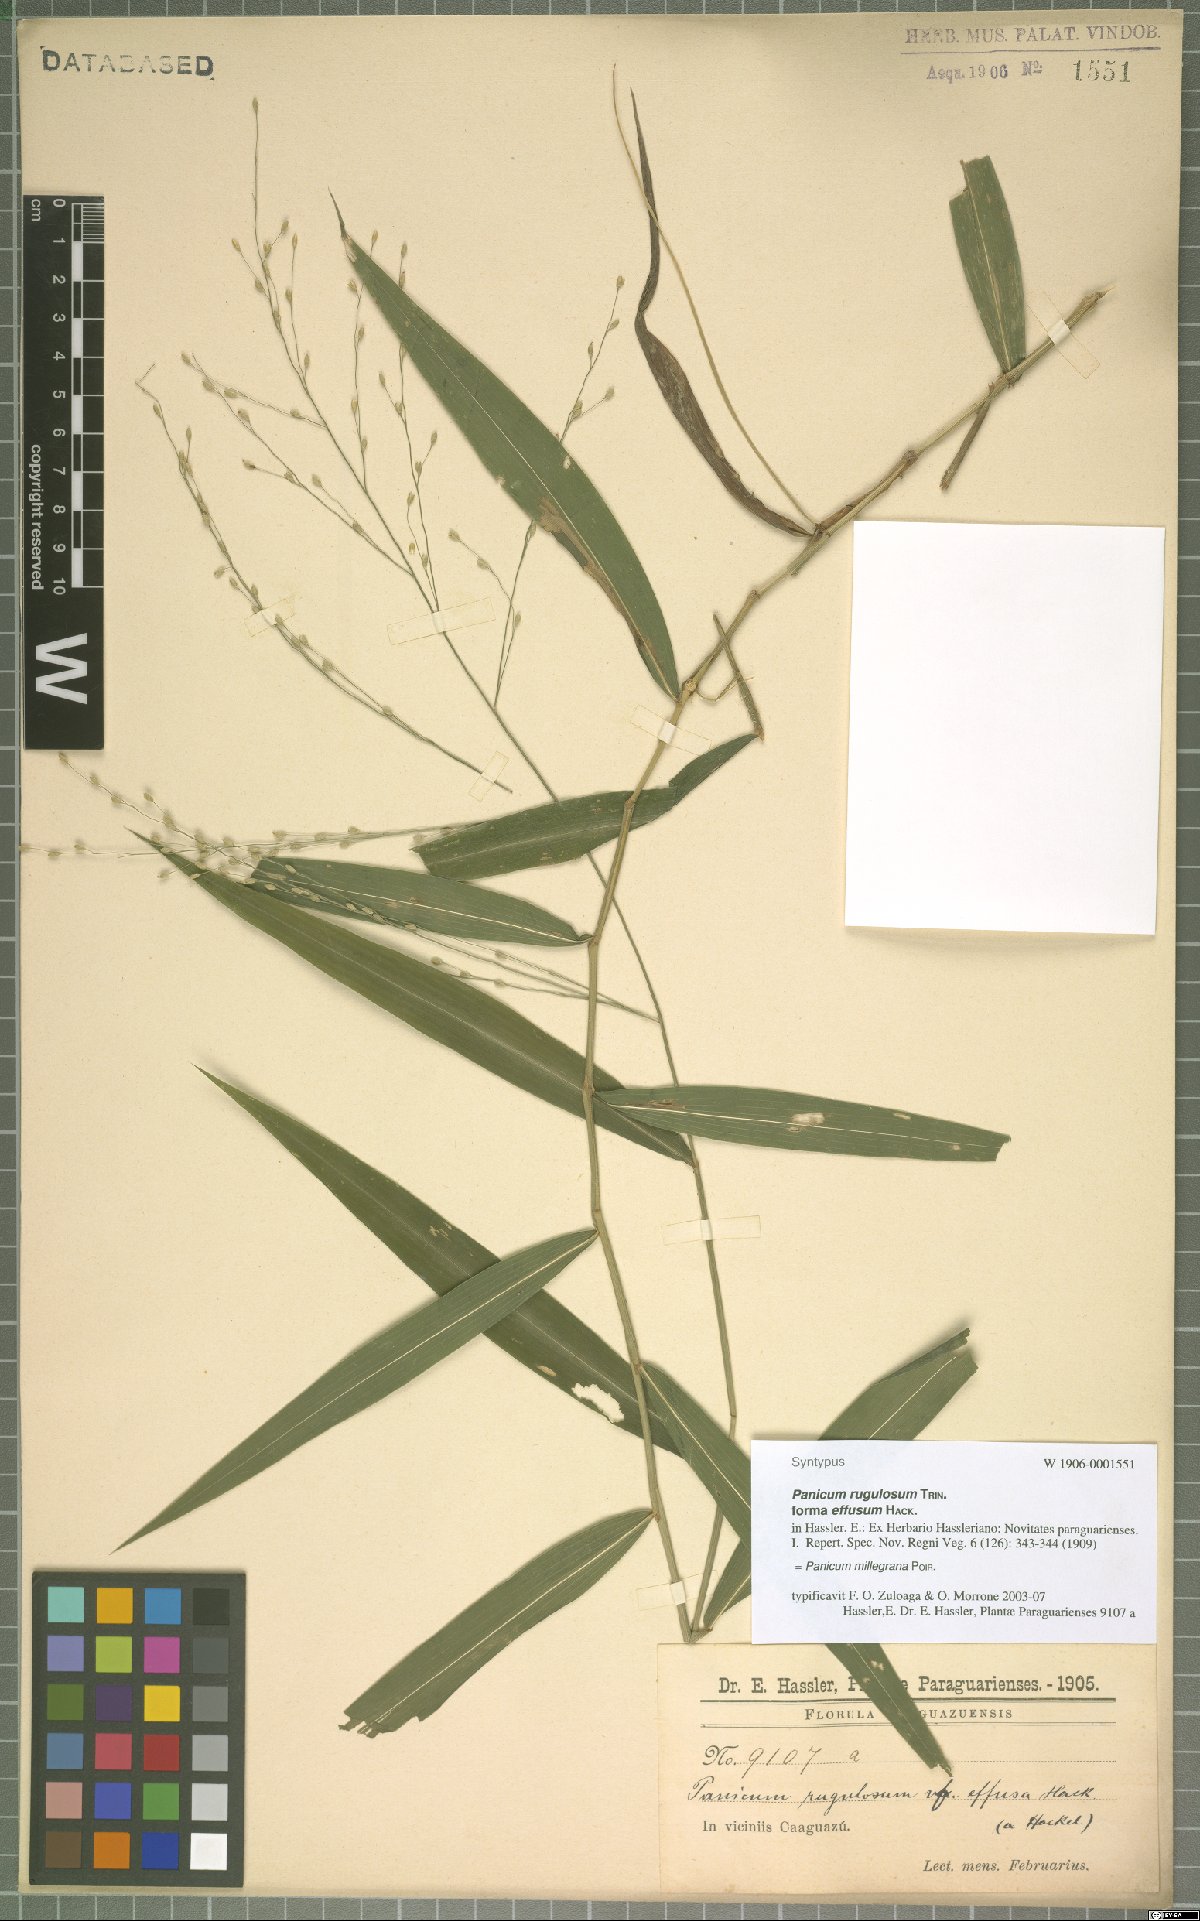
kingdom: Plantae
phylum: Tracheophyta
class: Liliopsida
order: Poales
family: Poaceae
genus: Panicum
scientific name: Panicum millegrana
